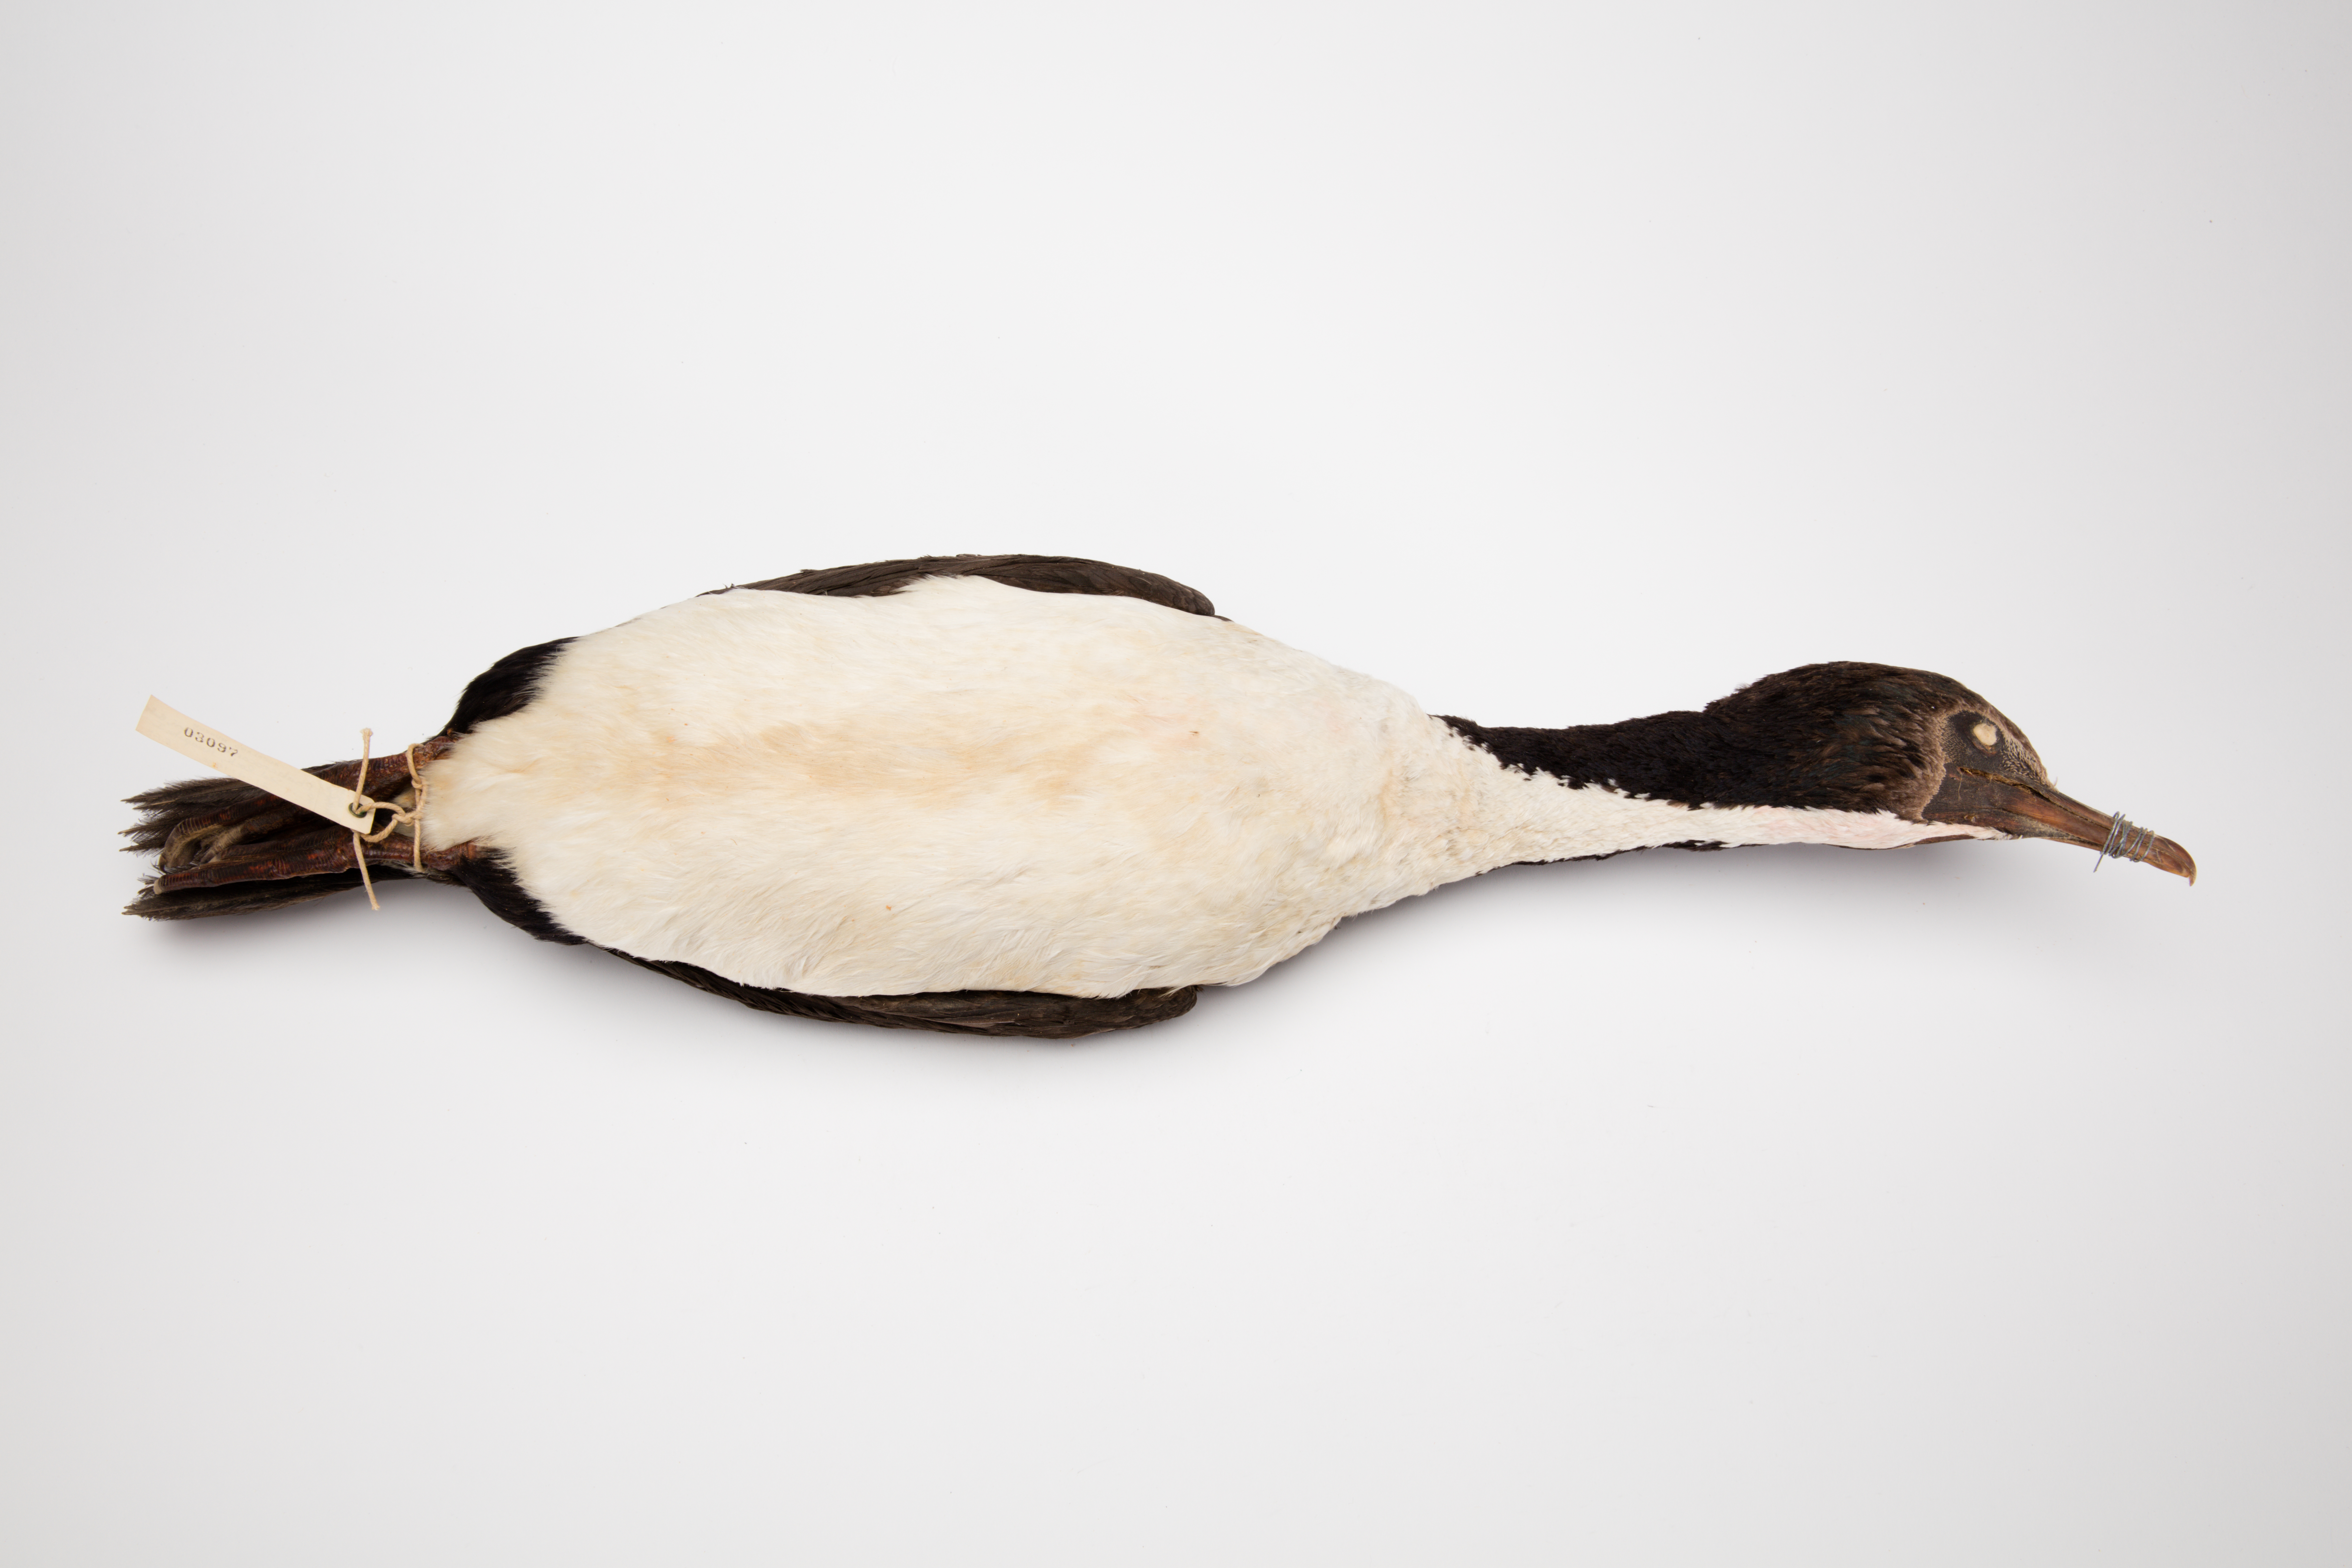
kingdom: Animalia
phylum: Chordata
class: Aves
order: Suliformes
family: Phalacrocoracidae
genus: Leucocarbo
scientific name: Leucocarbo chalconotus
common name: Stewart shag
